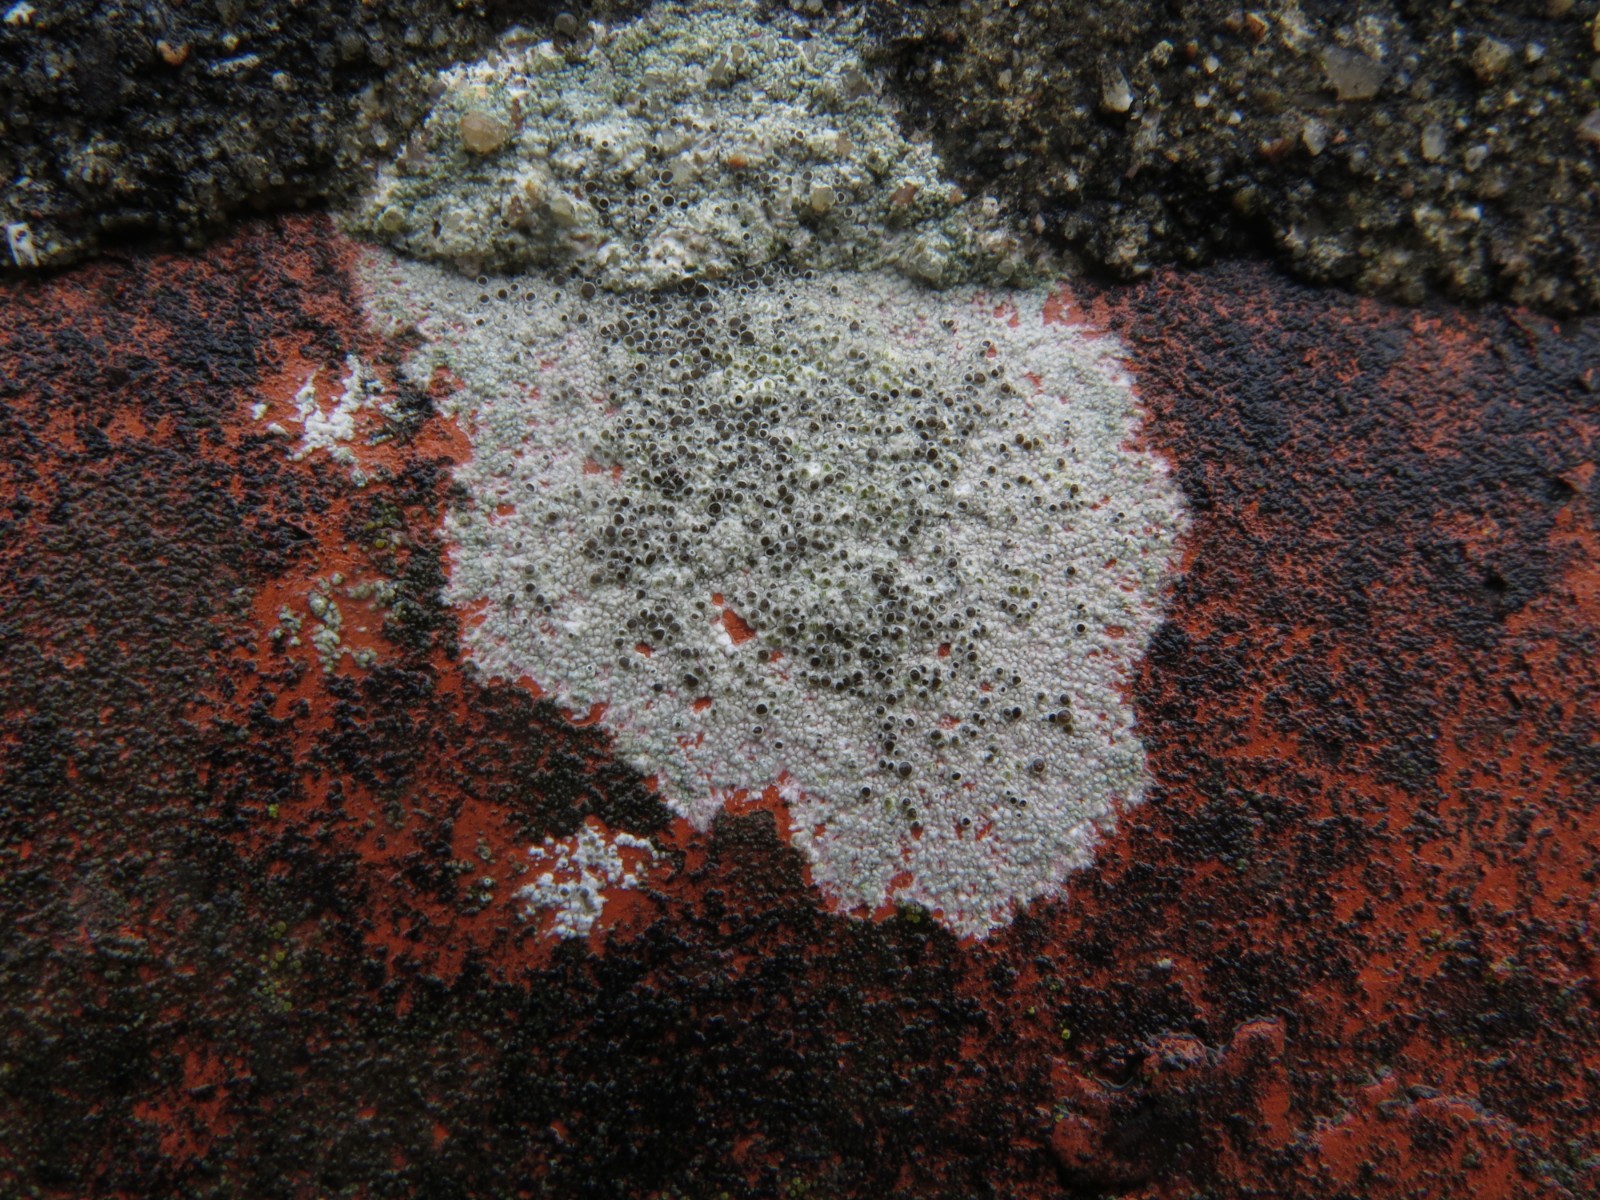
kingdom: Fungi
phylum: Ascomycota
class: Lecanoromycetes
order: Lecanorales
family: Lecanoraceae
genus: Lecanora
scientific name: Lecanora campestris
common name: mur-kantskivelav
